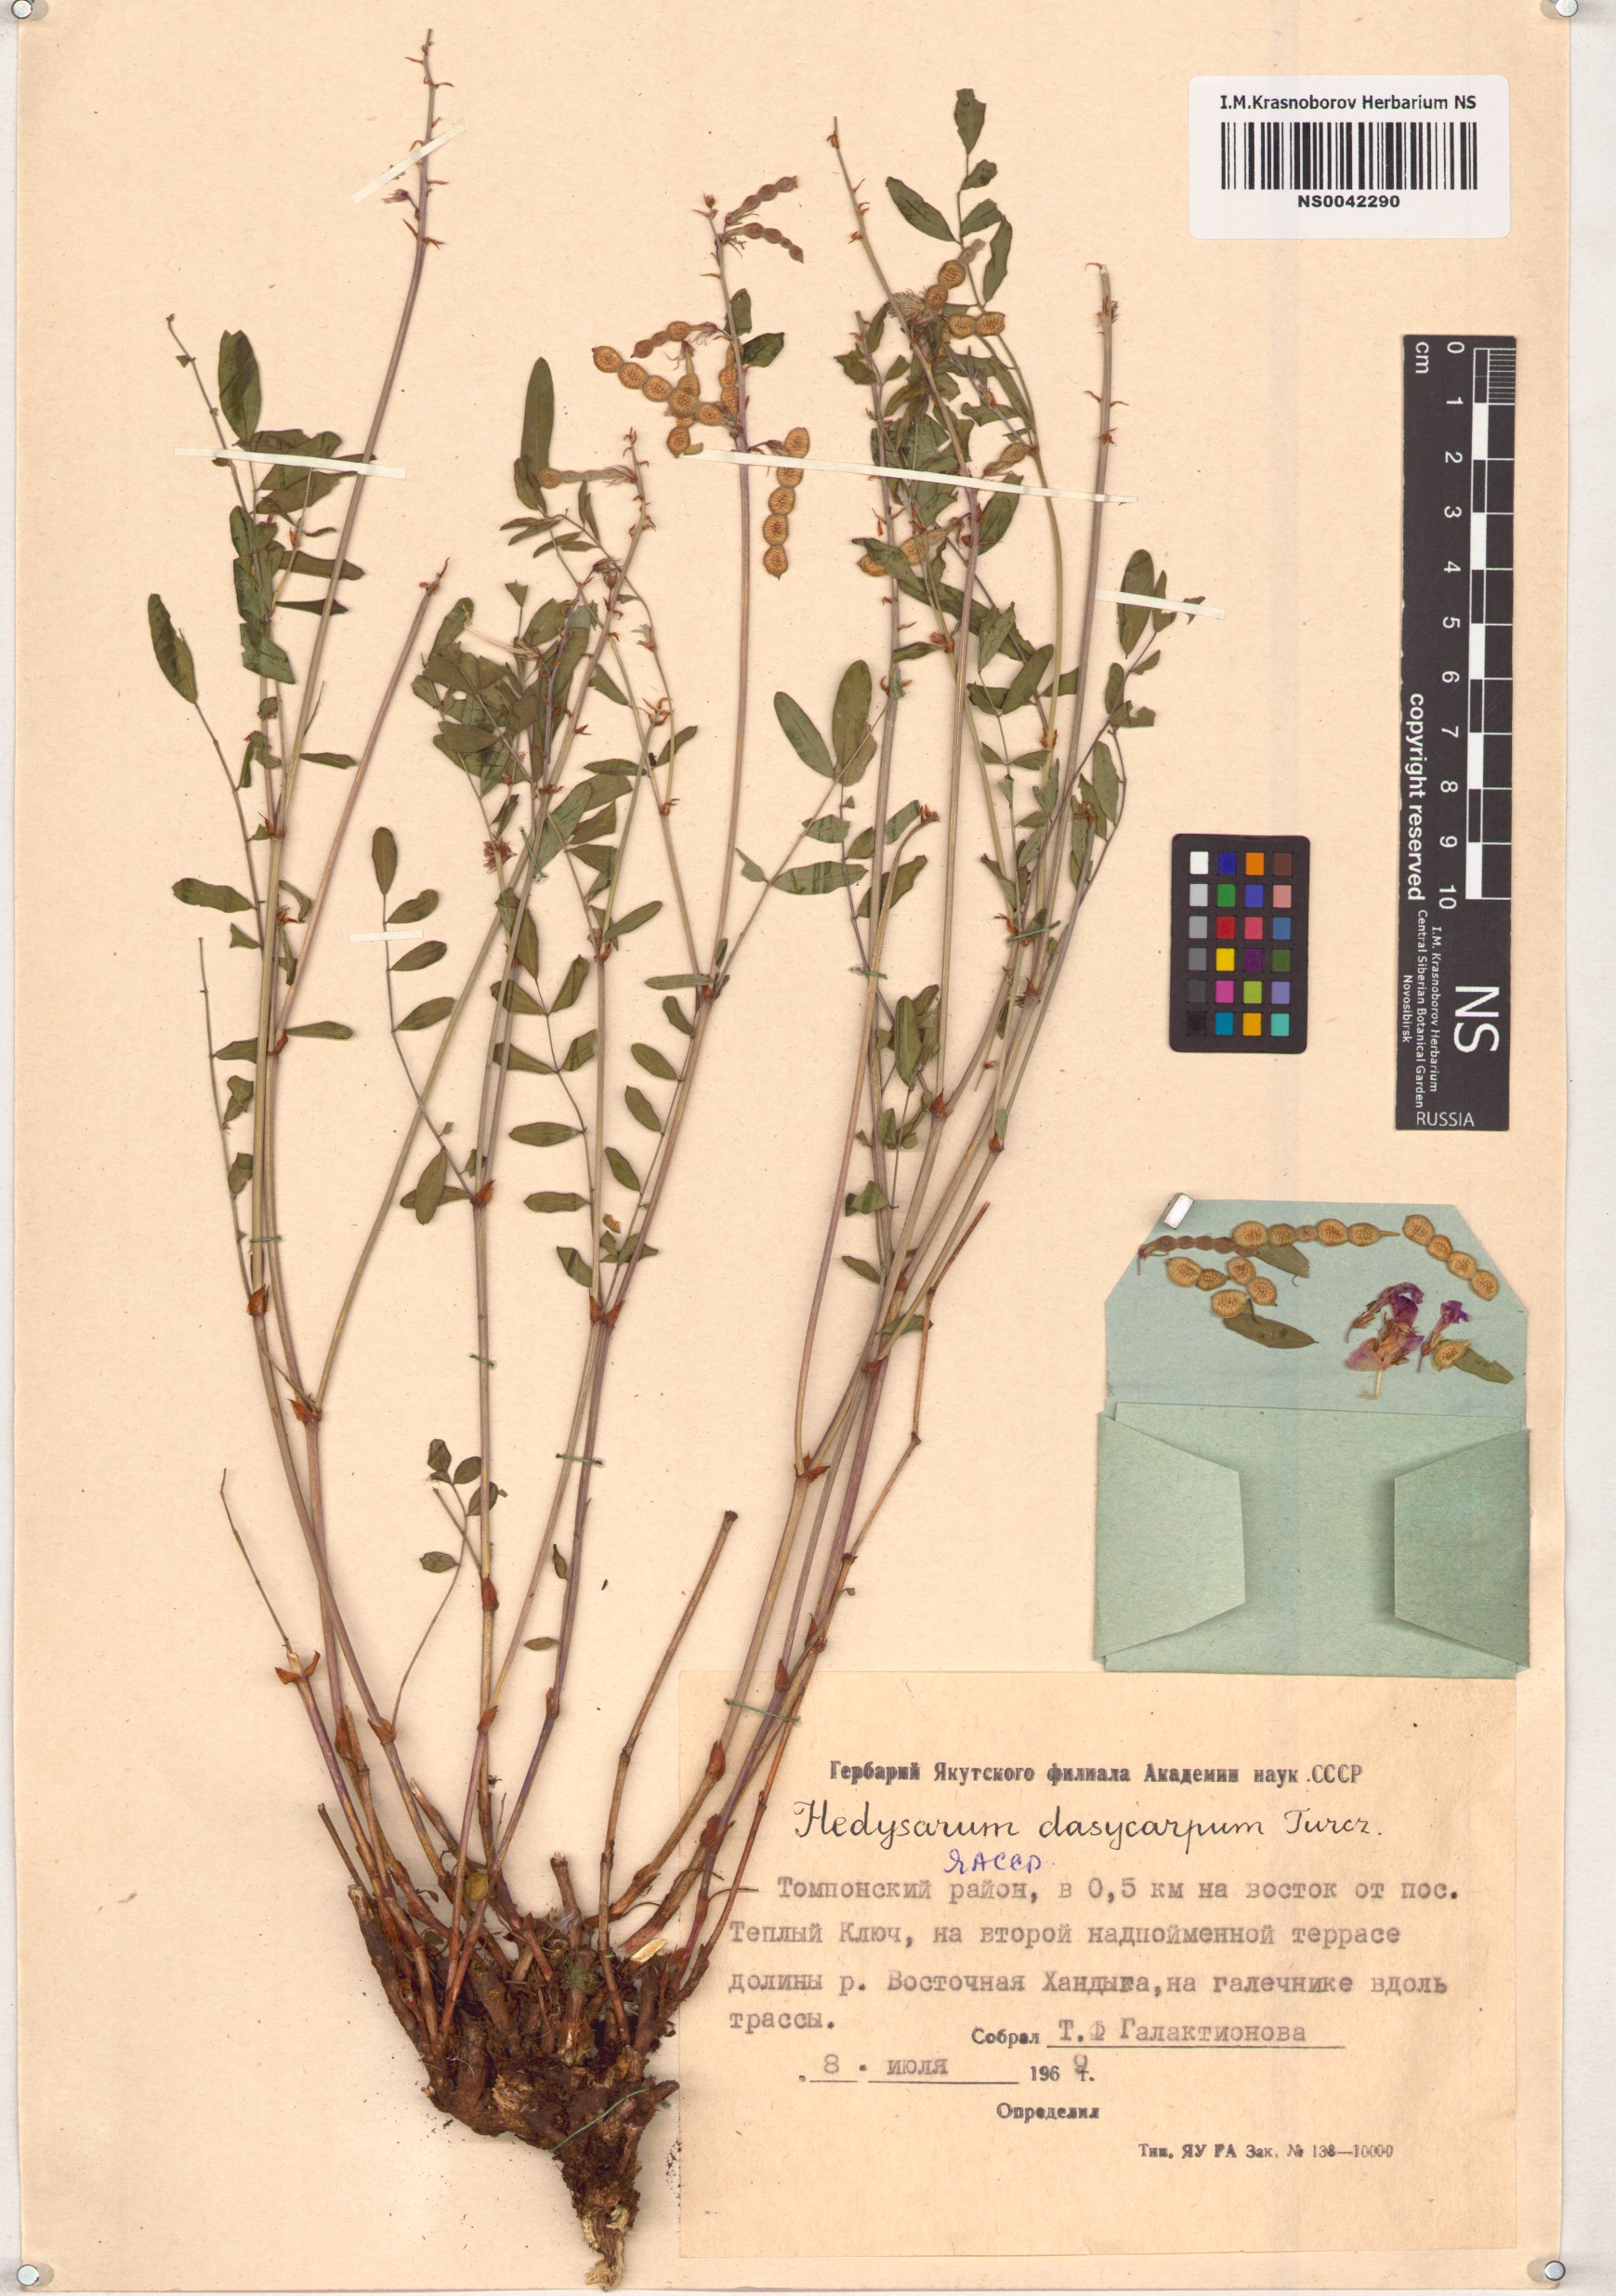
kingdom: Plantae
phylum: Tracheophyta
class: Magnoliopsida
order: Fabales
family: Fabaceae
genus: Hedysarum
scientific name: Hedysarum dasycarpum
